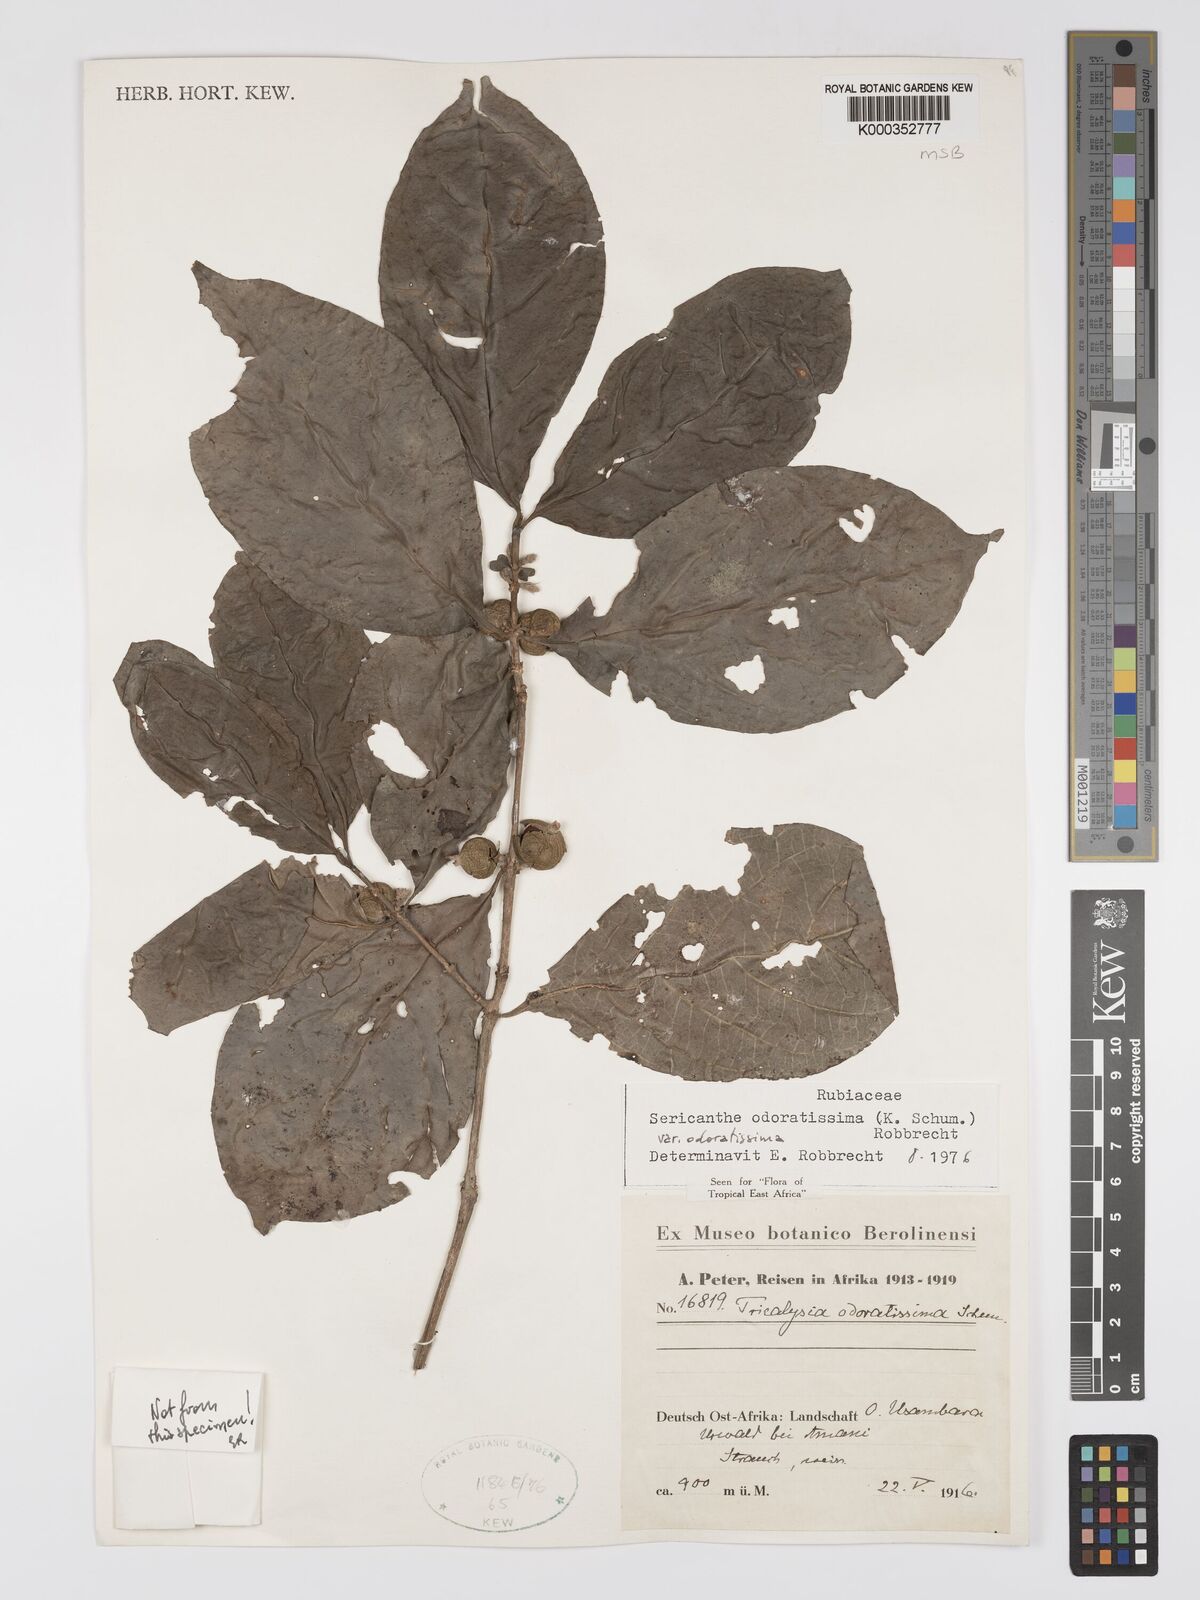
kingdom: Plantae
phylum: Tracheophyta
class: Magnoliopsida
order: Gentianales
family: Rubiaceae
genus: Sericanthe
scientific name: Sericanthe odoratissima
